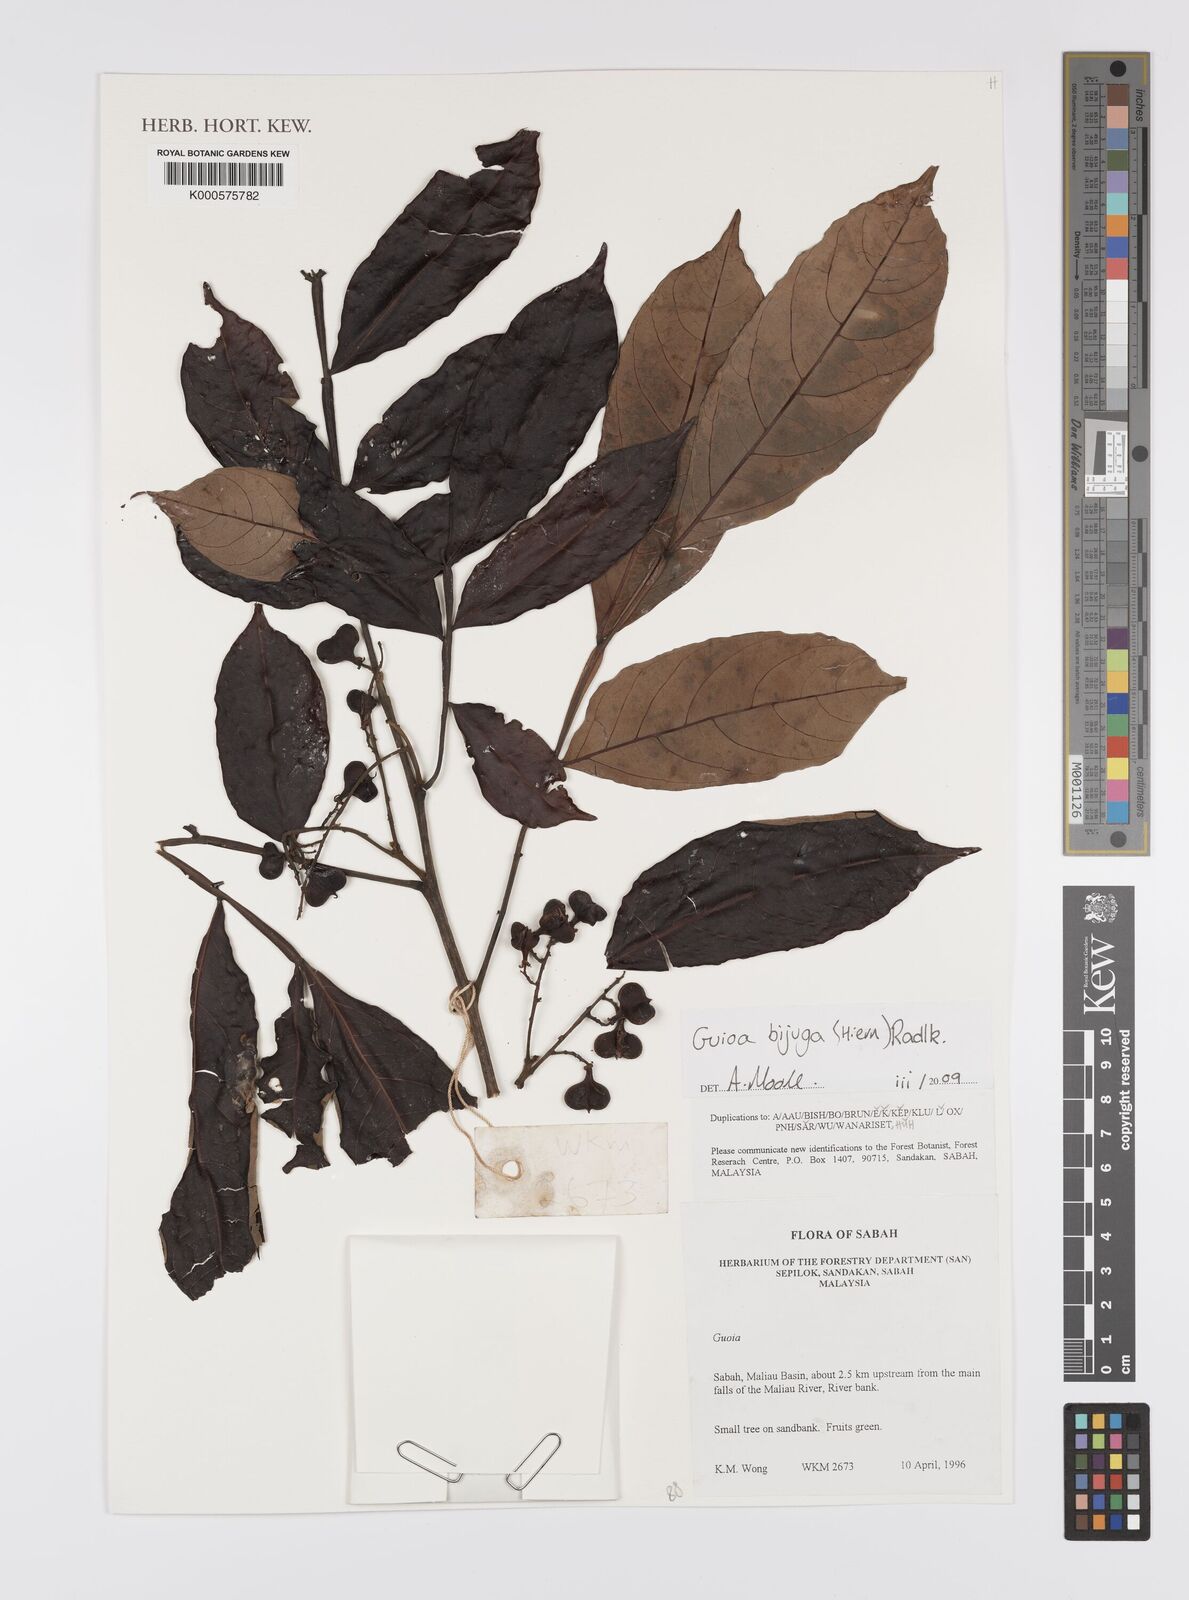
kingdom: Plantae
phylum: Tracheophyta
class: Magnoliopsida
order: Sapindales
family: Sapindaceae
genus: Guioa
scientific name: Guioa bijuga
